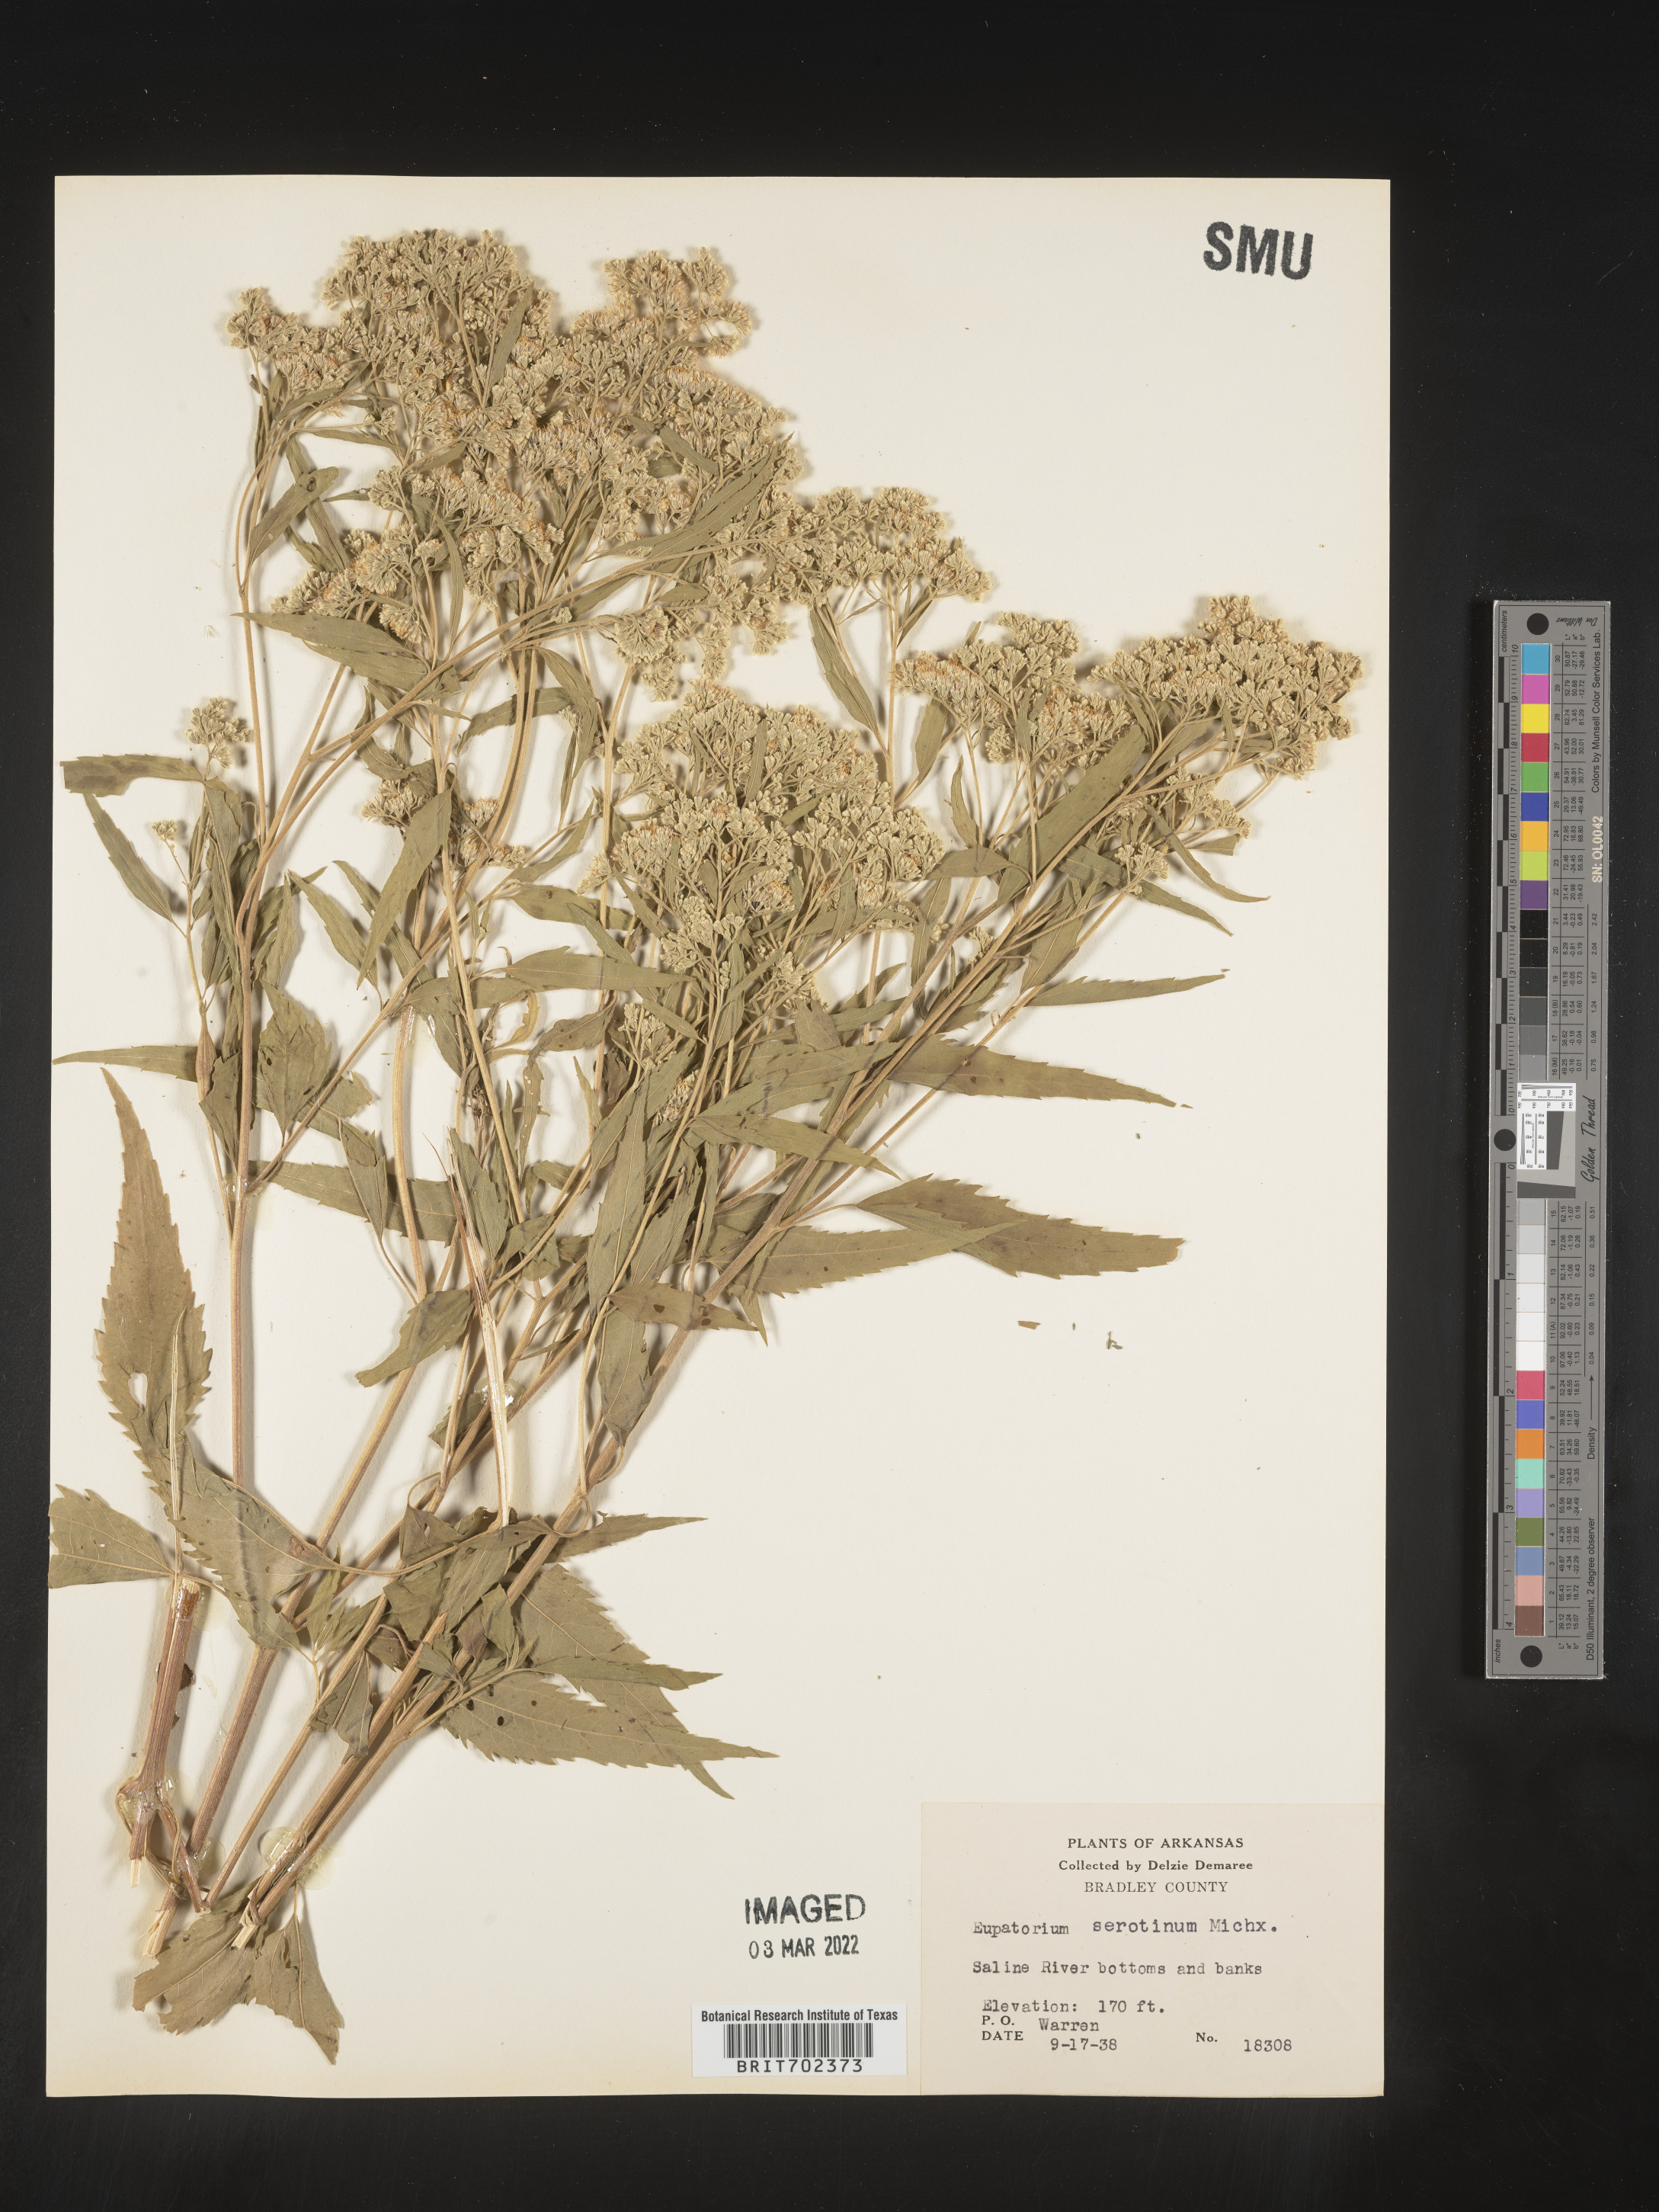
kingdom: Plantae
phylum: Tracheophyta
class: Magnoliopsida
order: Asterales
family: Asteraceae
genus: Eupatorium
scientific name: Eupatorium serotinum
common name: Late boneset
